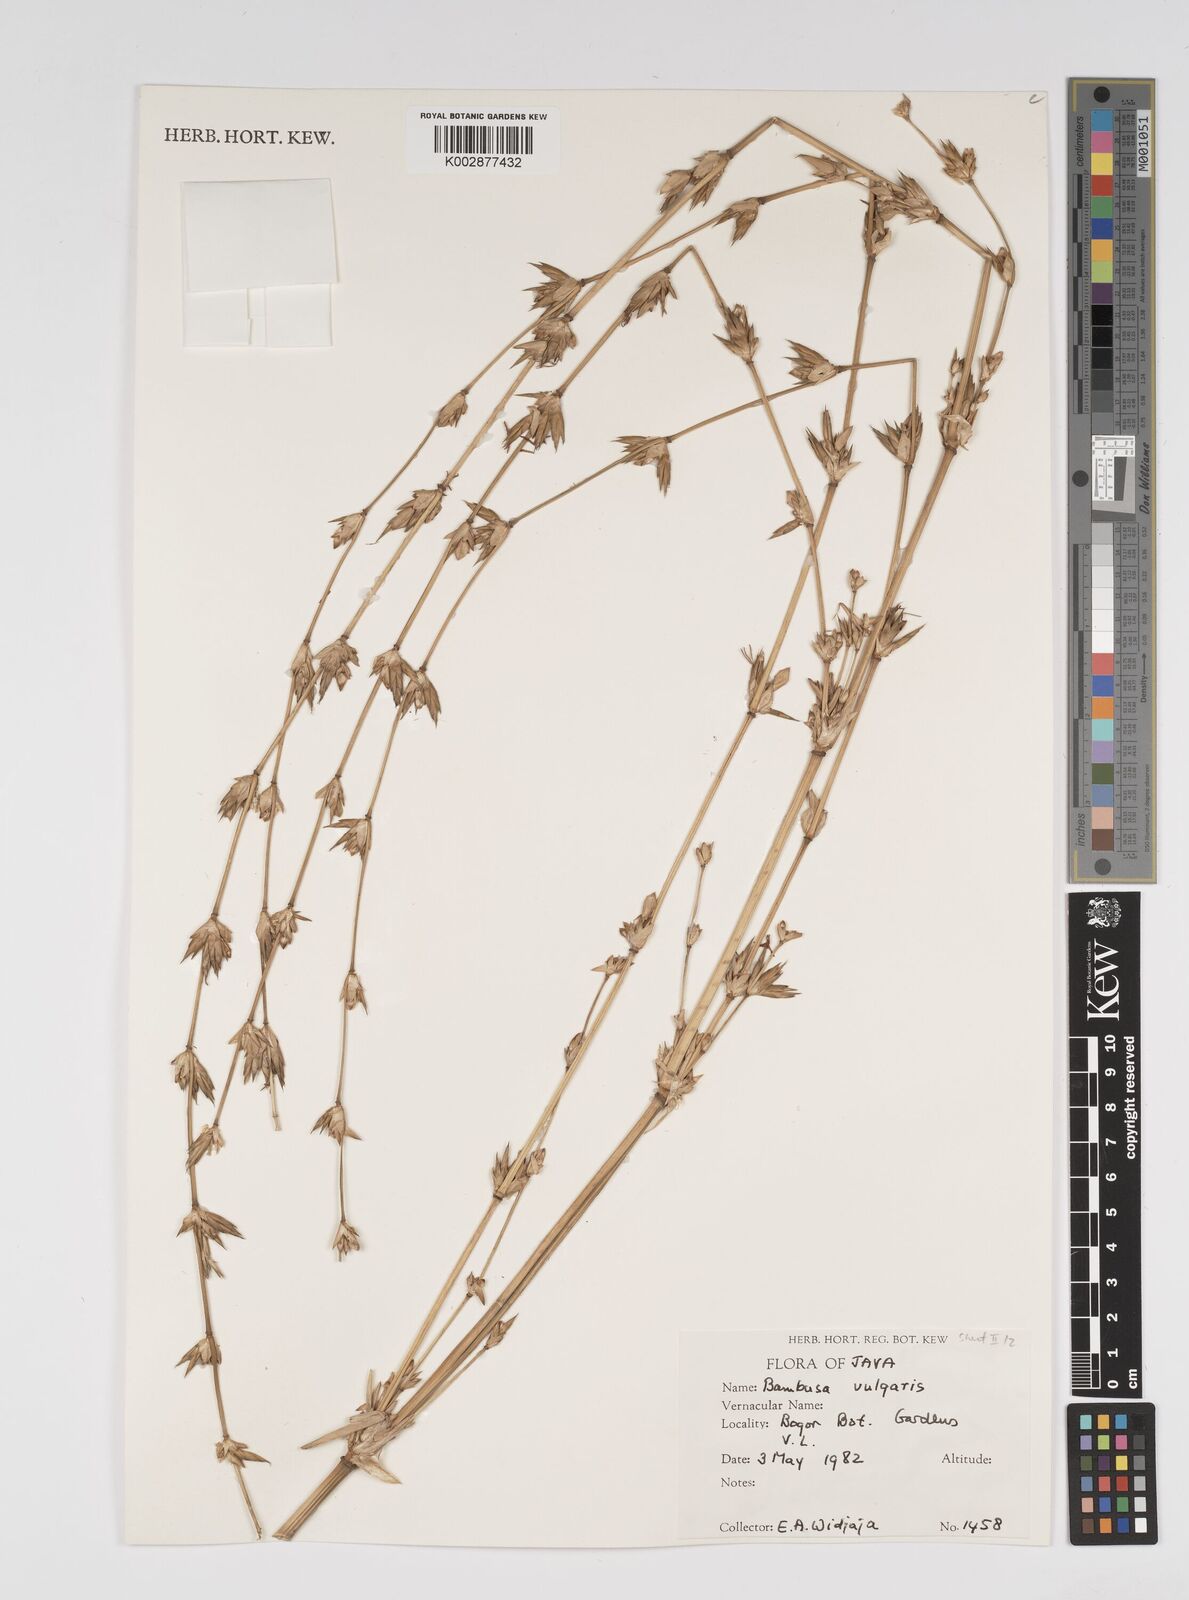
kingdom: Plantae
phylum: Tracheophyta
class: Liliopsida
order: Poales
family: Poaceae
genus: Bambusa
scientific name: Bambusa vulgaris
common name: Common bamboo
